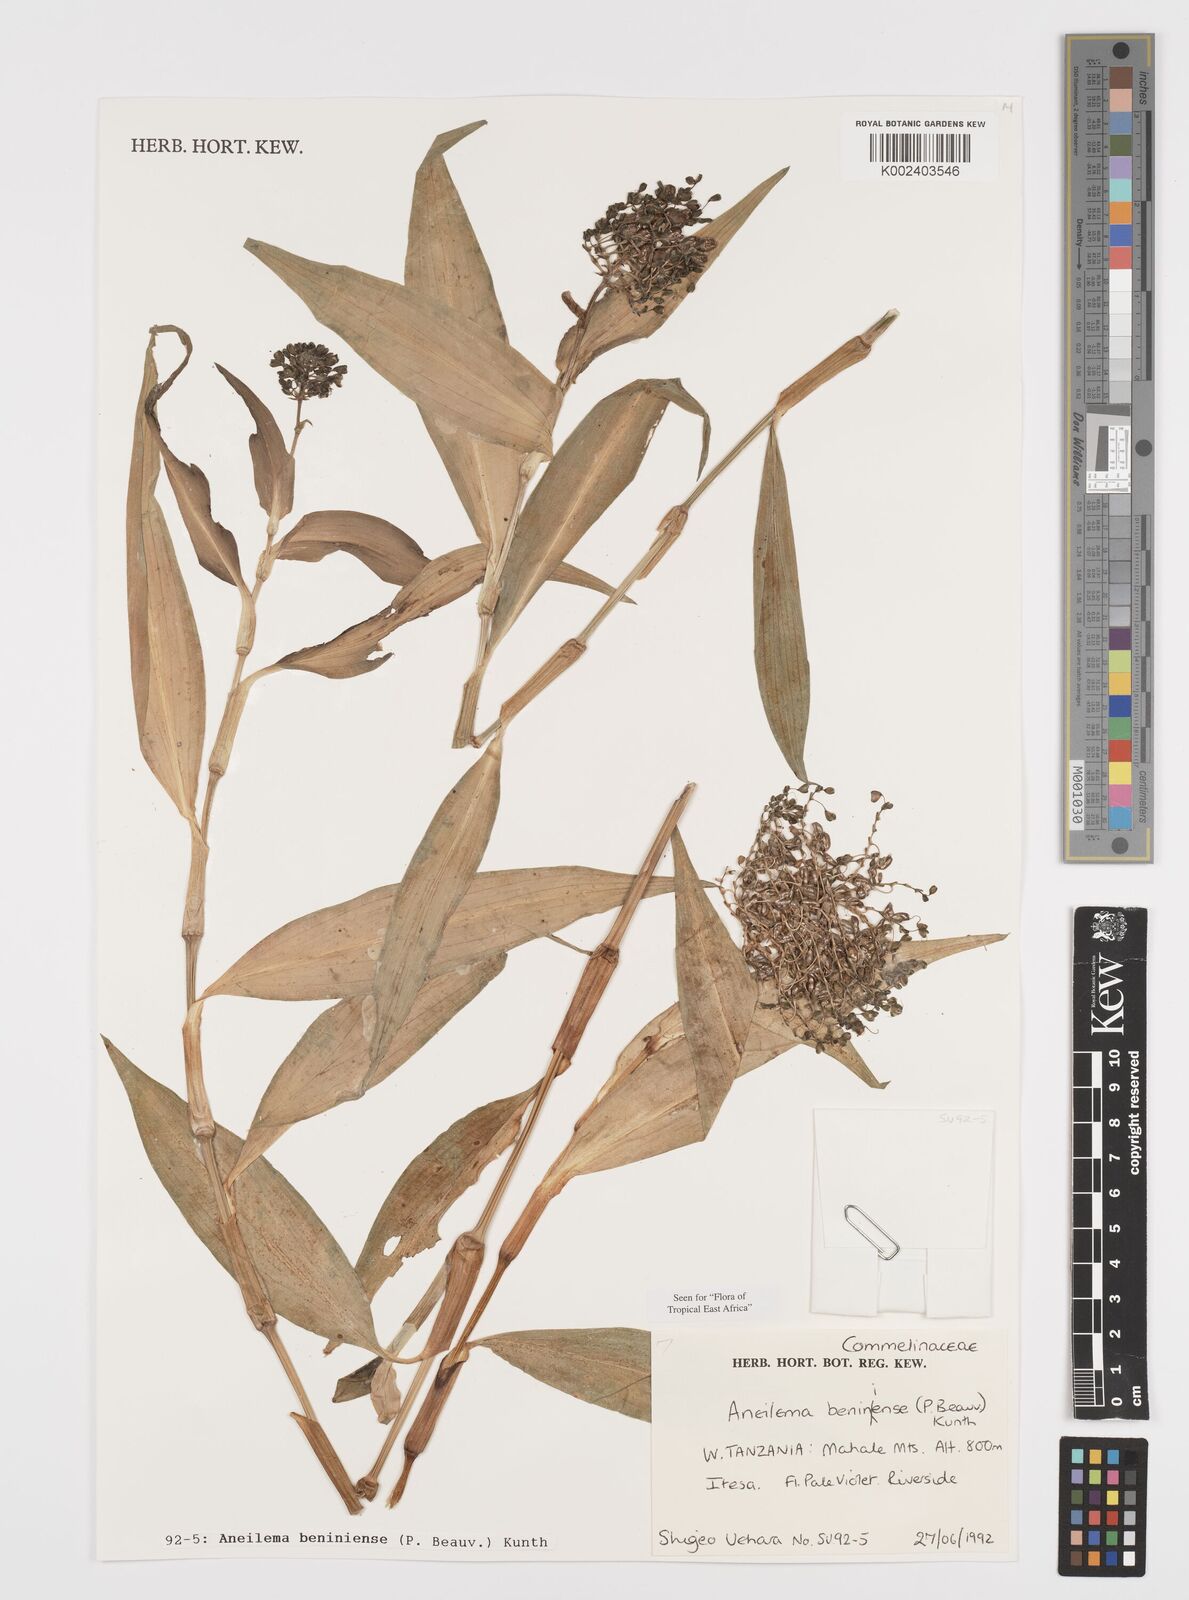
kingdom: Plantae
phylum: Tracheophyta
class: Liliopsida
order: Commelinales
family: Commelinaceae
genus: Aneilema
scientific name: Aneilema beniniense
